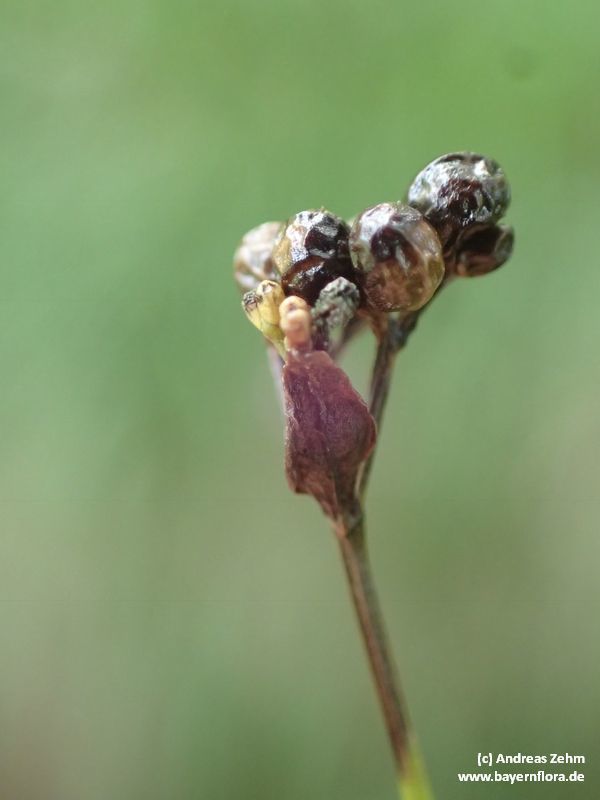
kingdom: Plantae
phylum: Tracheophyta
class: Magnoliopsida
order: Gentianales
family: Rubiaceae
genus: Asperula
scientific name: Asperula tinctoria
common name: Dyer's woodruff
